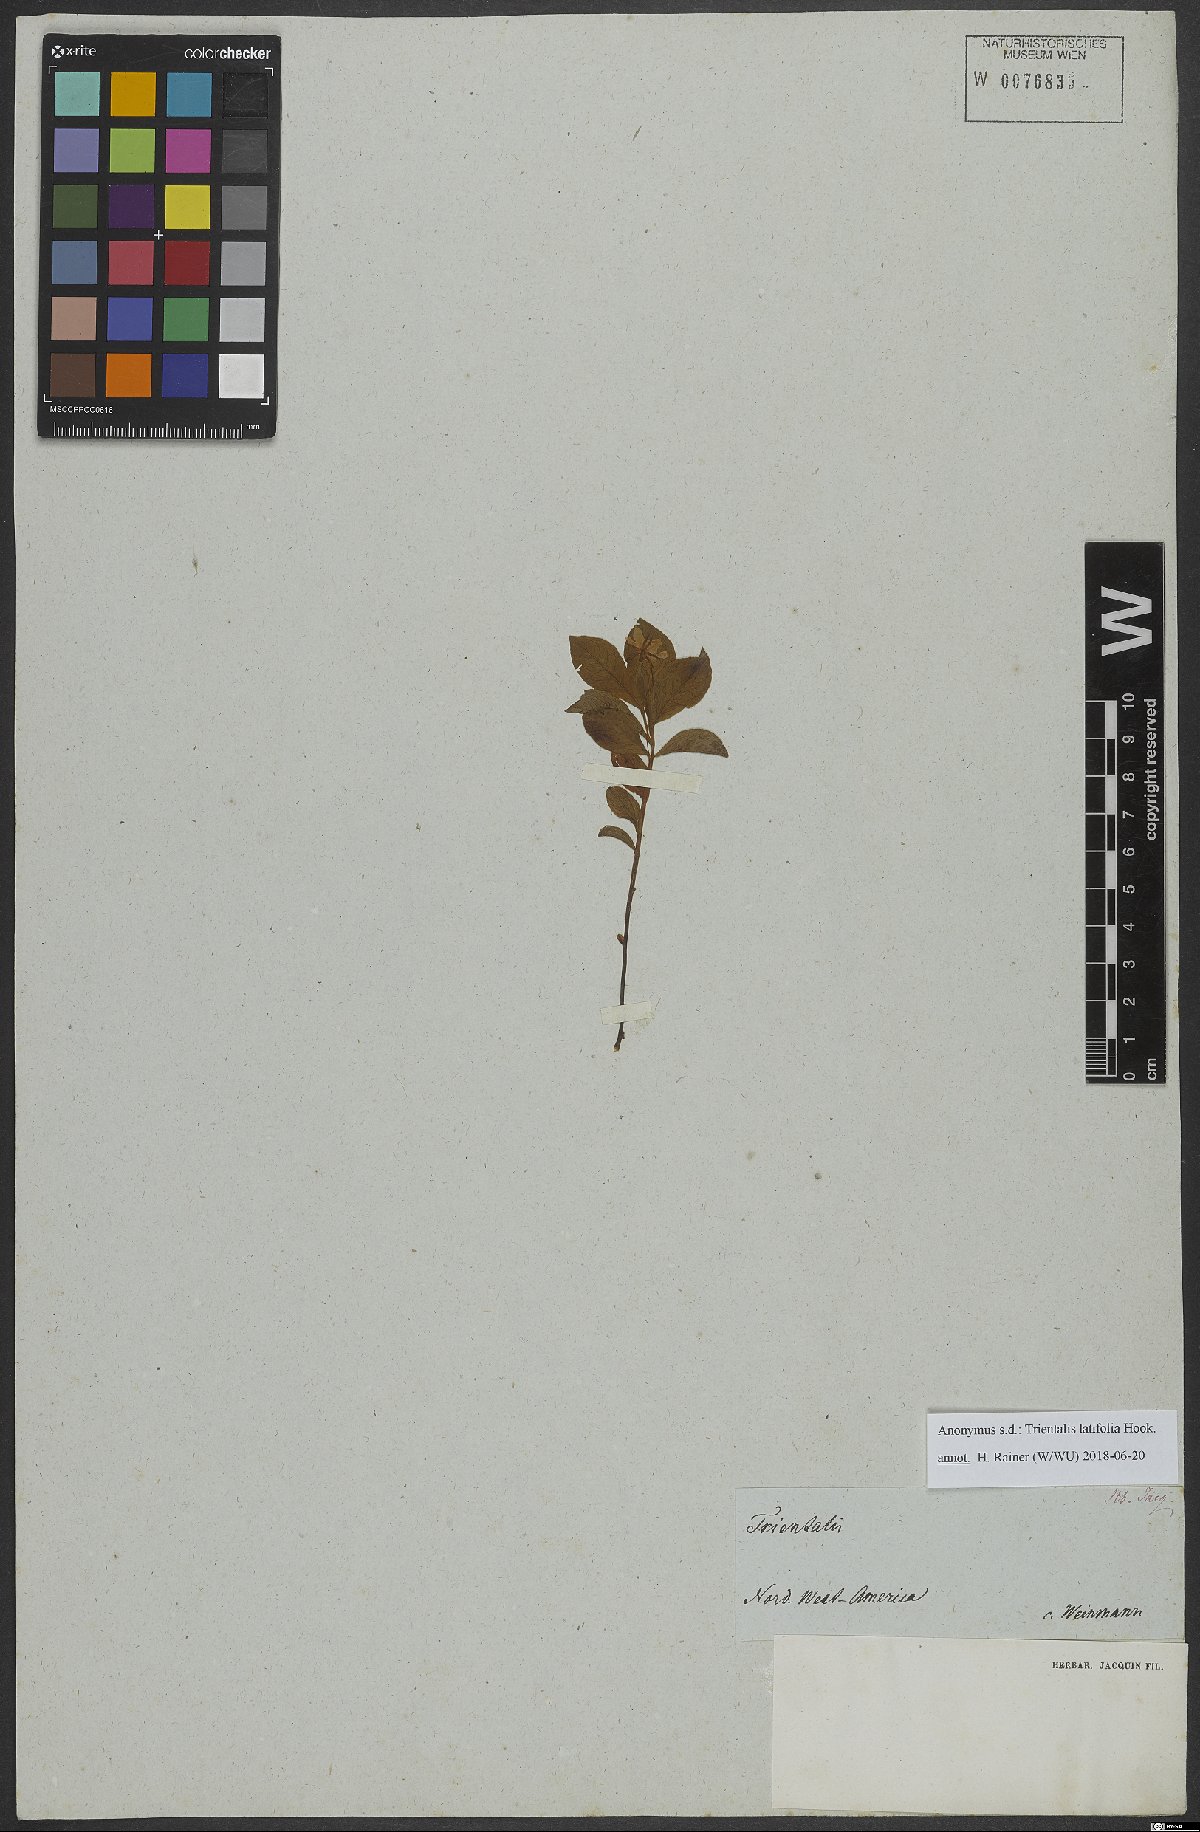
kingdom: Plantae
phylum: Tracheophyta
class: Magnoliopsida
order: Ericales
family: Primulaceae
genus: Lysimachia
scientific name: Lysimachia latifolia
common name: Pacific starflower
